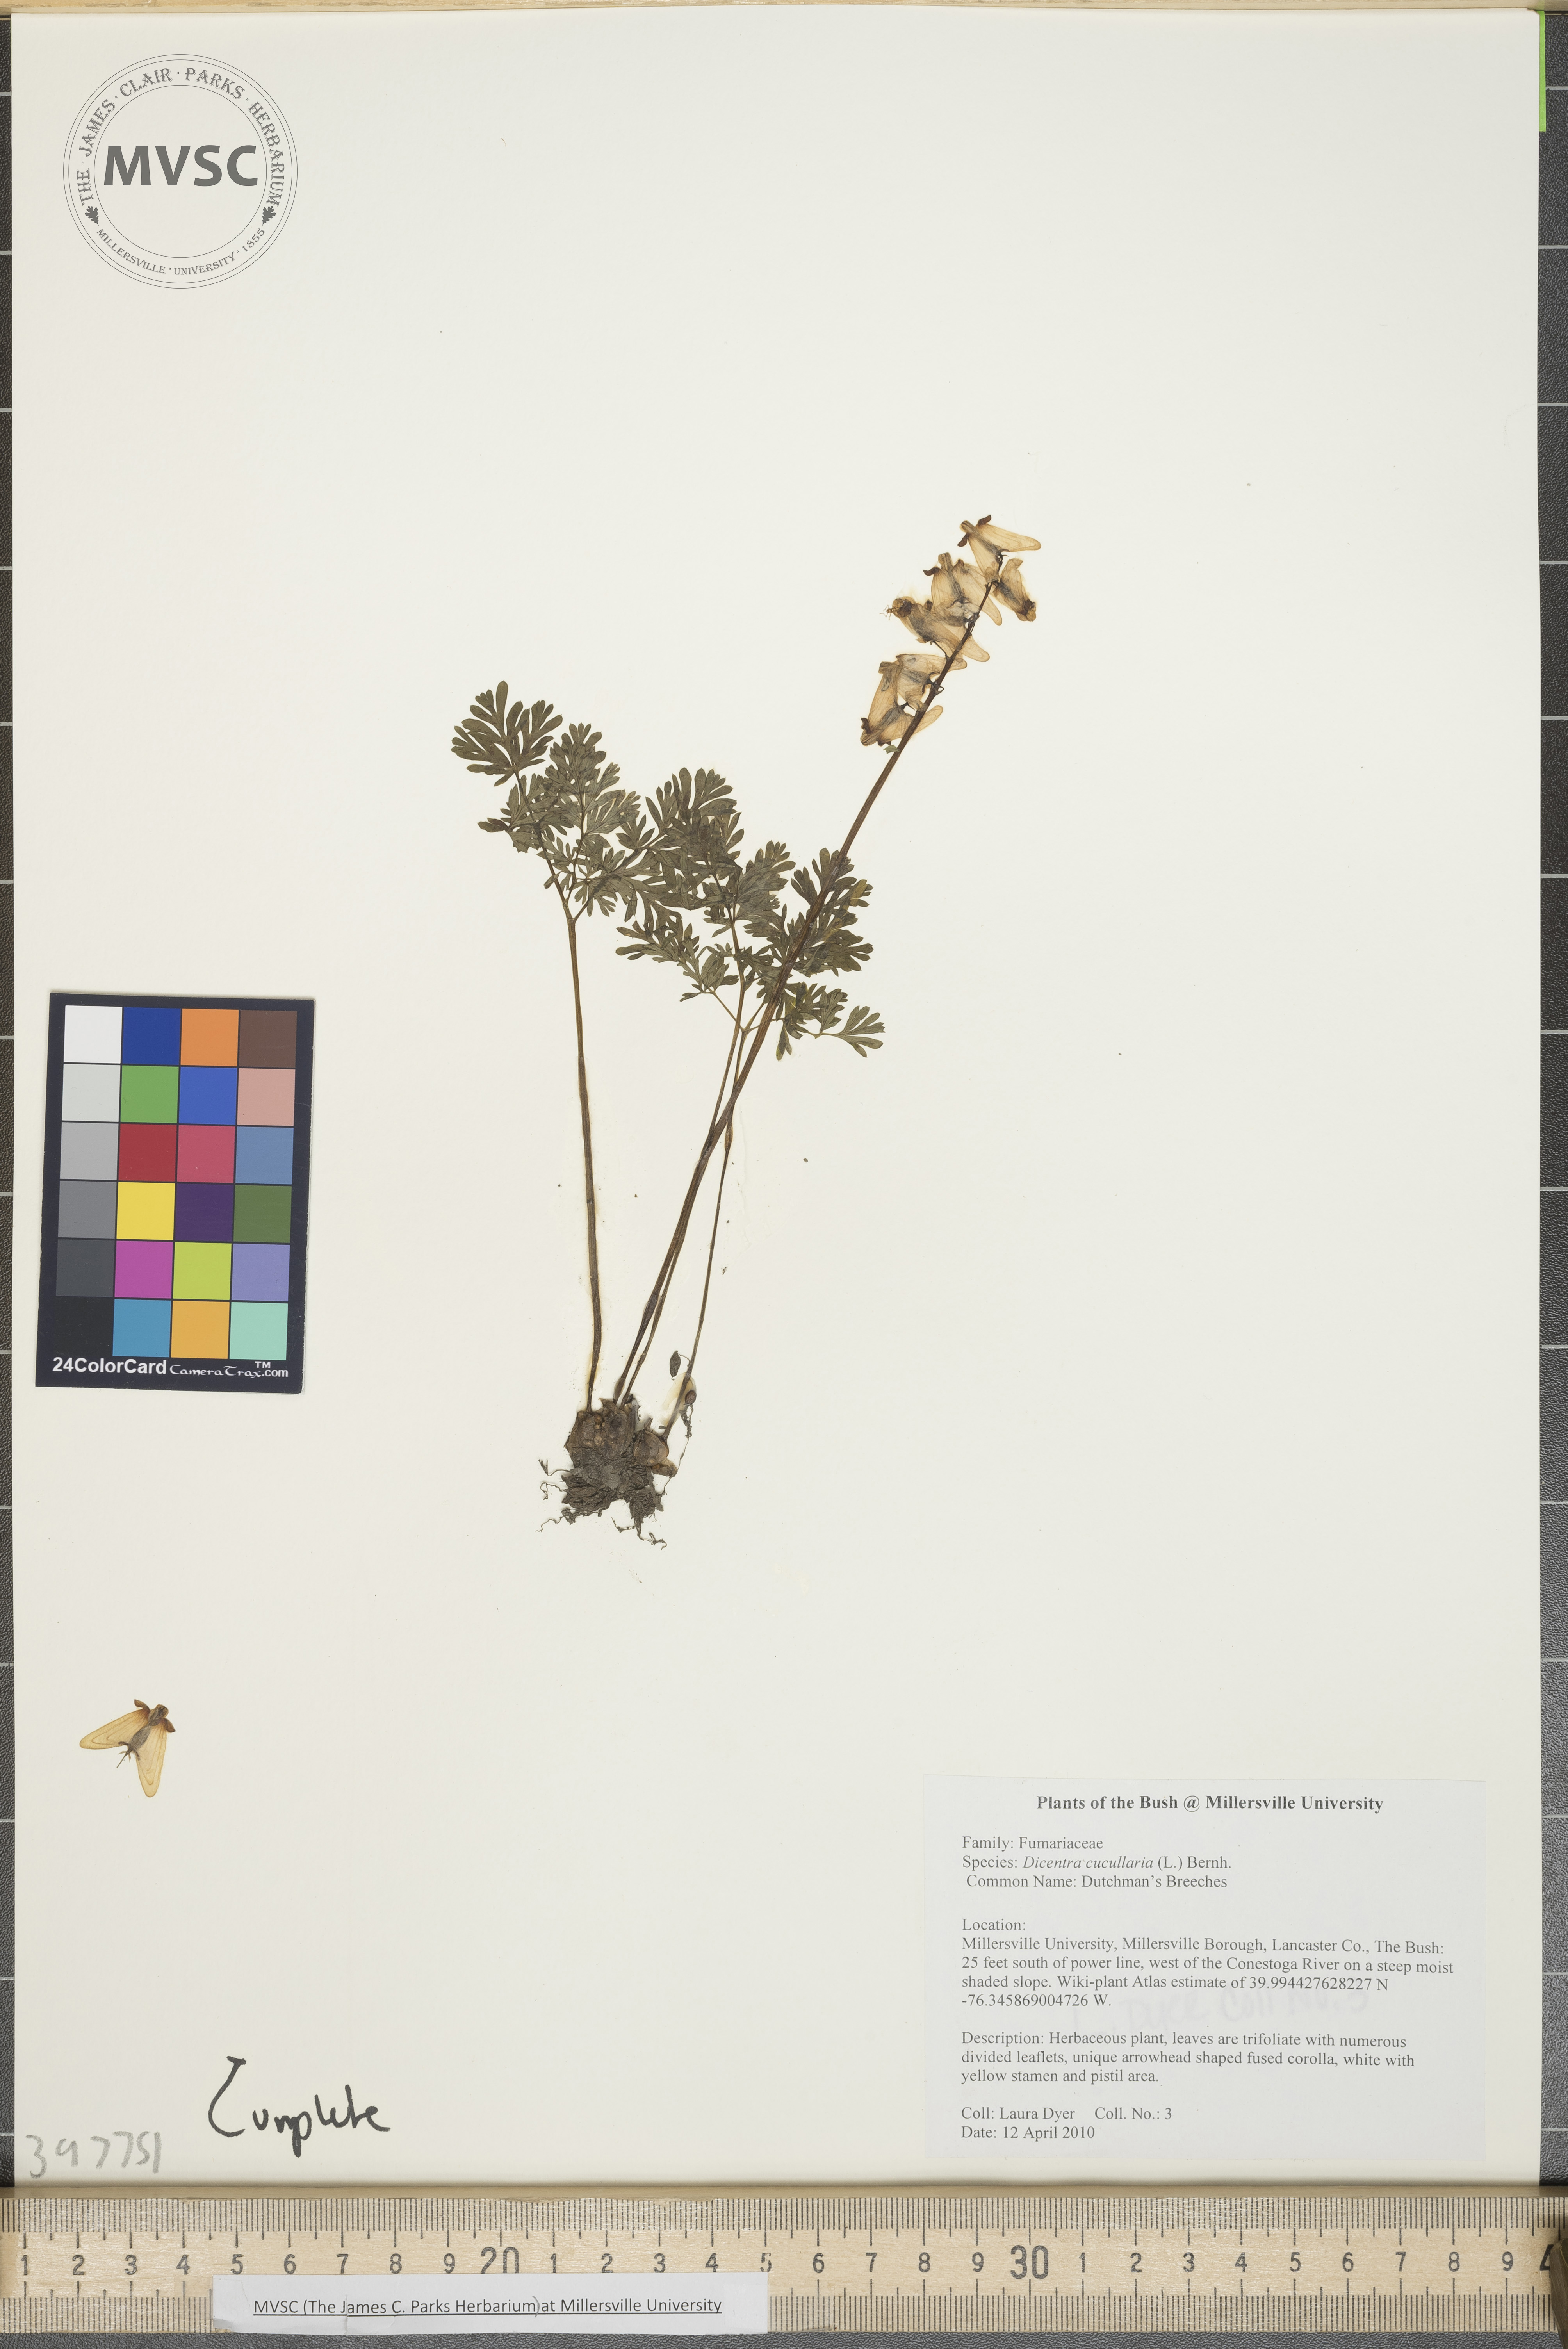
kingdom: Plantae
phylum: Tracheophyta
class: Magnoliopsida
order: Ranunculales
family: Papaveraceae
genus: Dicentra
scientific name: Dicentra cucullaria
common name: Dutchman's-breeches
